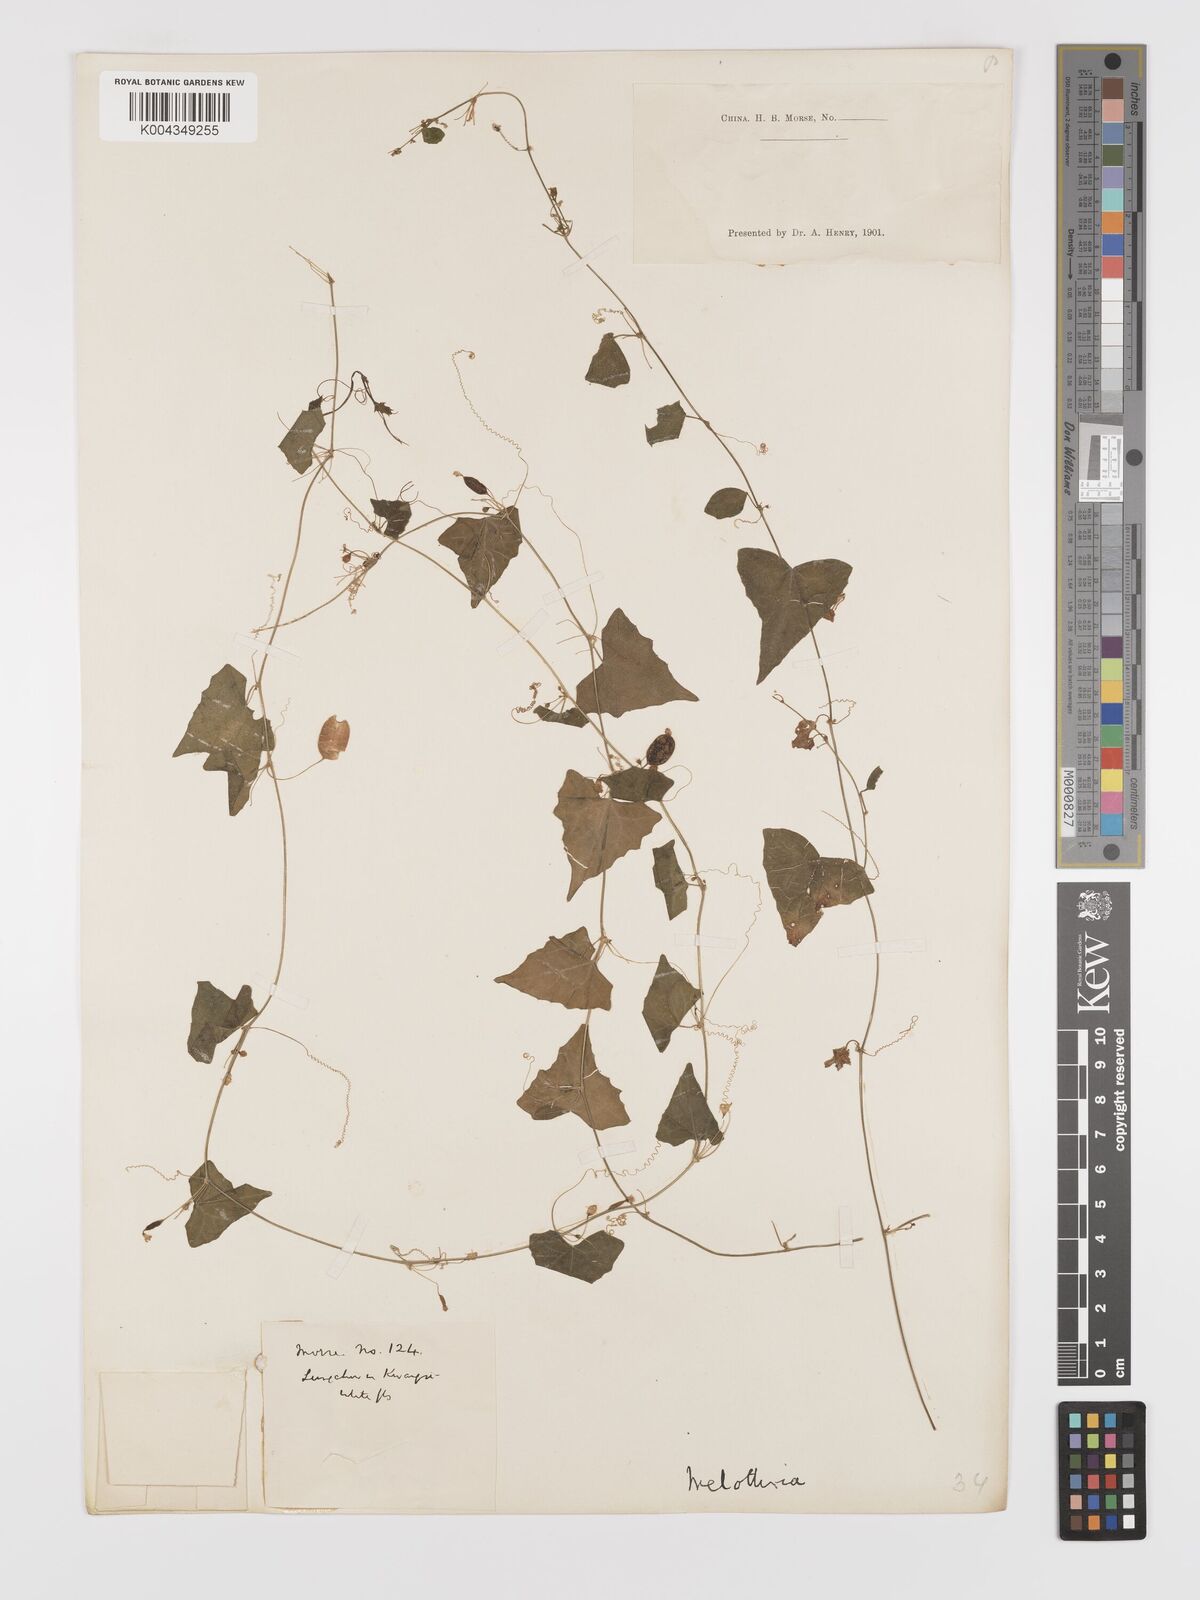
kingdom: Plantae
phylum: Tracheophyta
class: Magnoliopsida
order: Cucurbitales
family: Cucurbitaceae
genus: Zehneria
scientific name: Zehneria japonica
